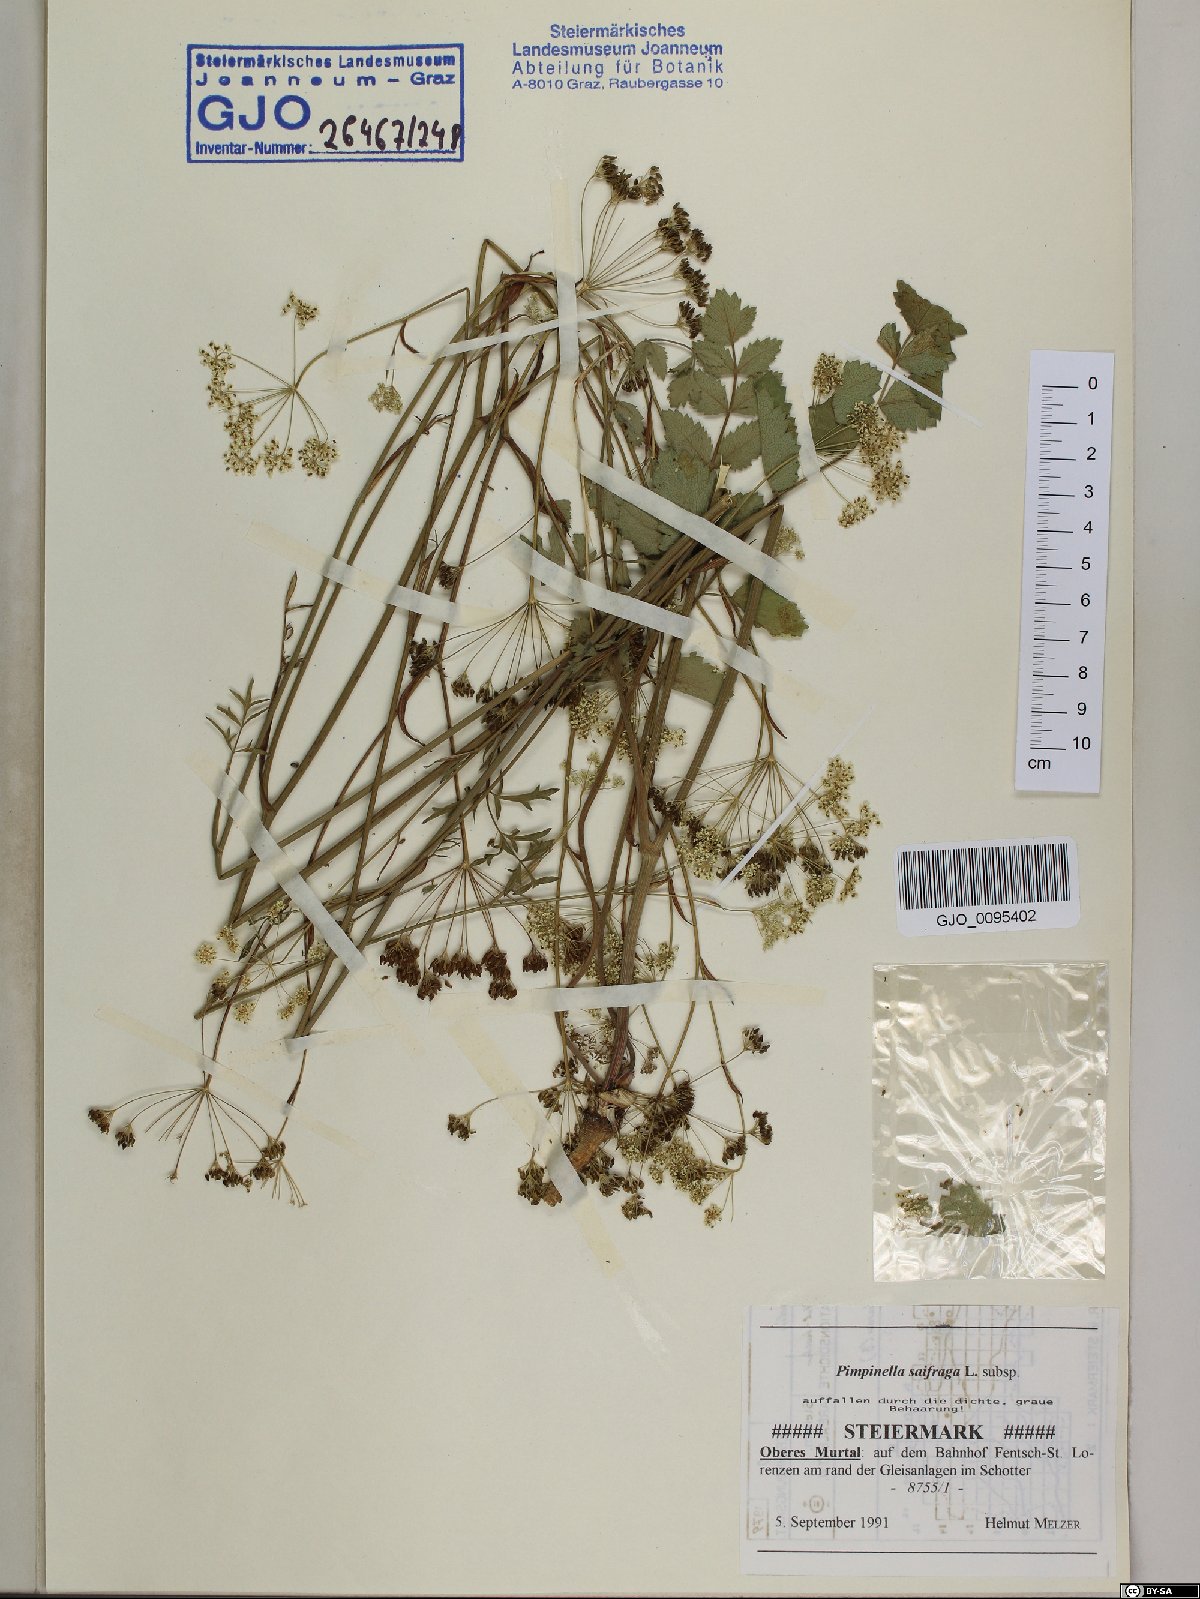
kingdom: Plantae
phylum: Tracheophyta
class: Magnoliopsida
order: Apiales
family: Apiaceae
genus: Pimpinella
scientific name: Pimpinella saxifraga
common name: Burnet-saxifrage
